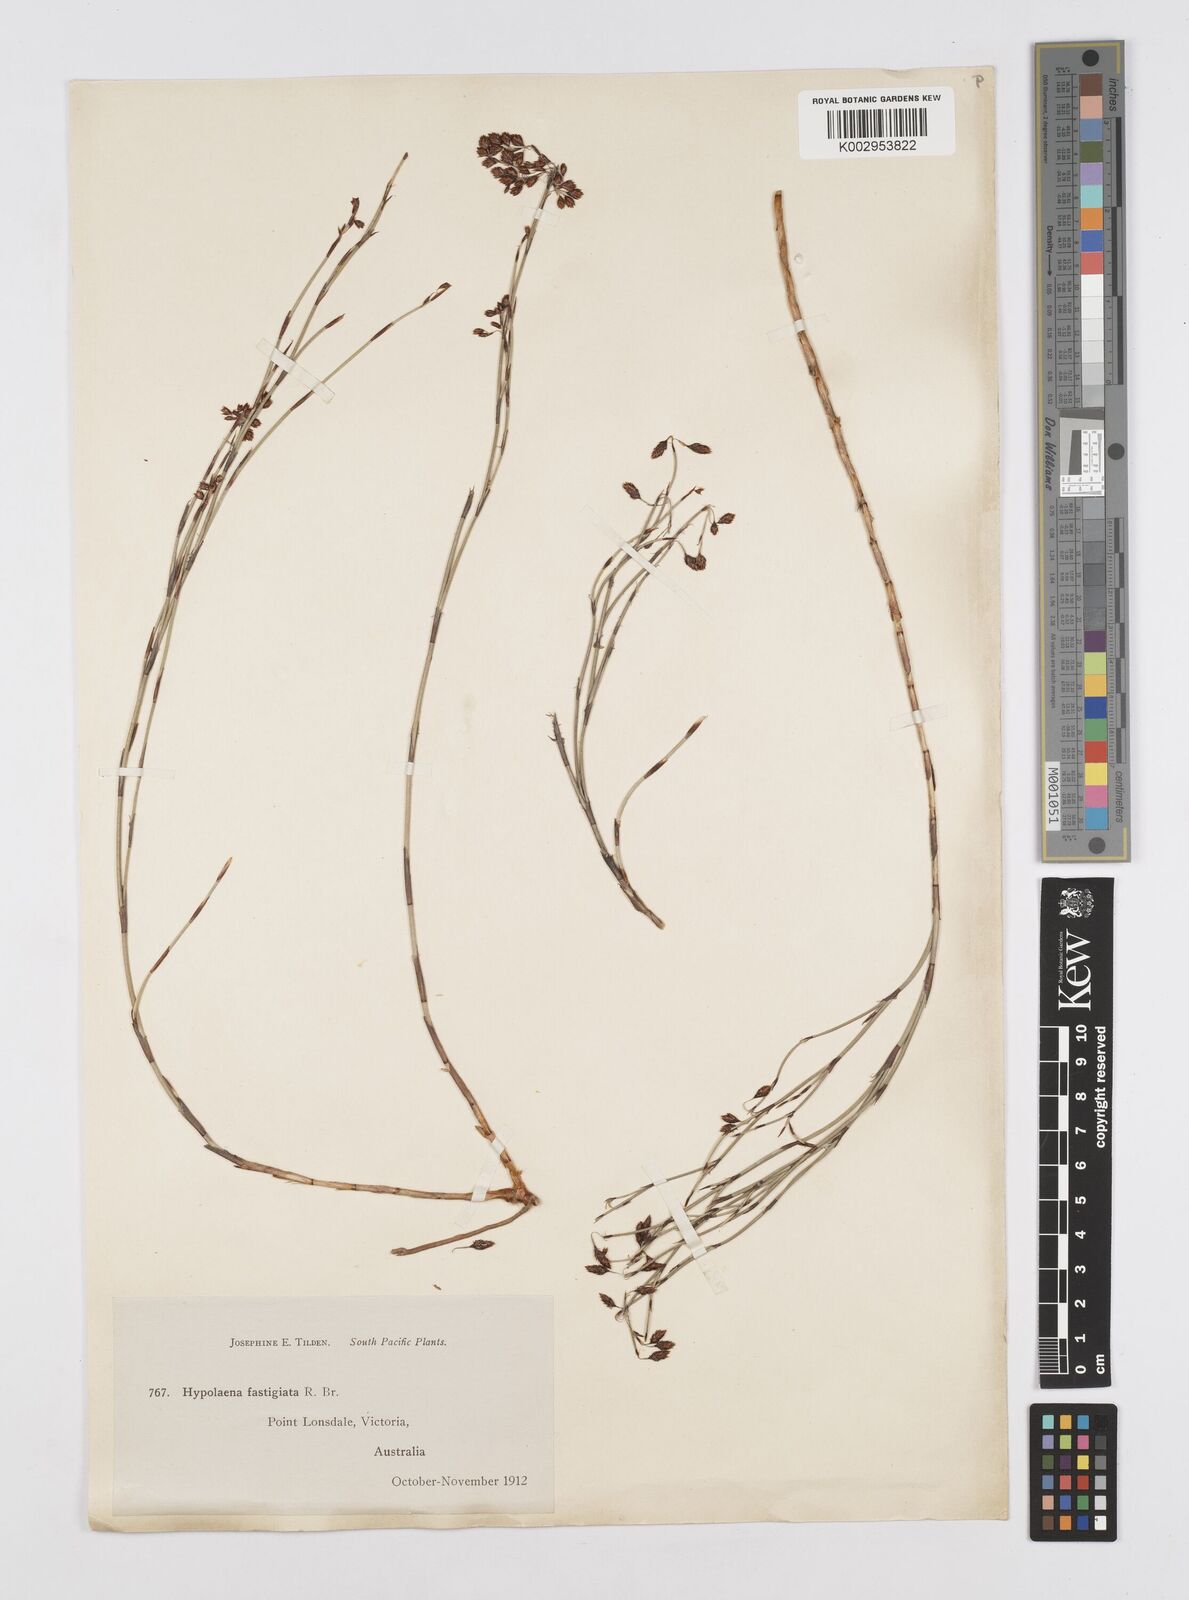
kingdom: Plantae
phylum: Tracheophyta
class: Liliopsida
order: Poales
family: Restionaceae
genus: Hypolaena
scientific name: Hypolaena fastigiata
